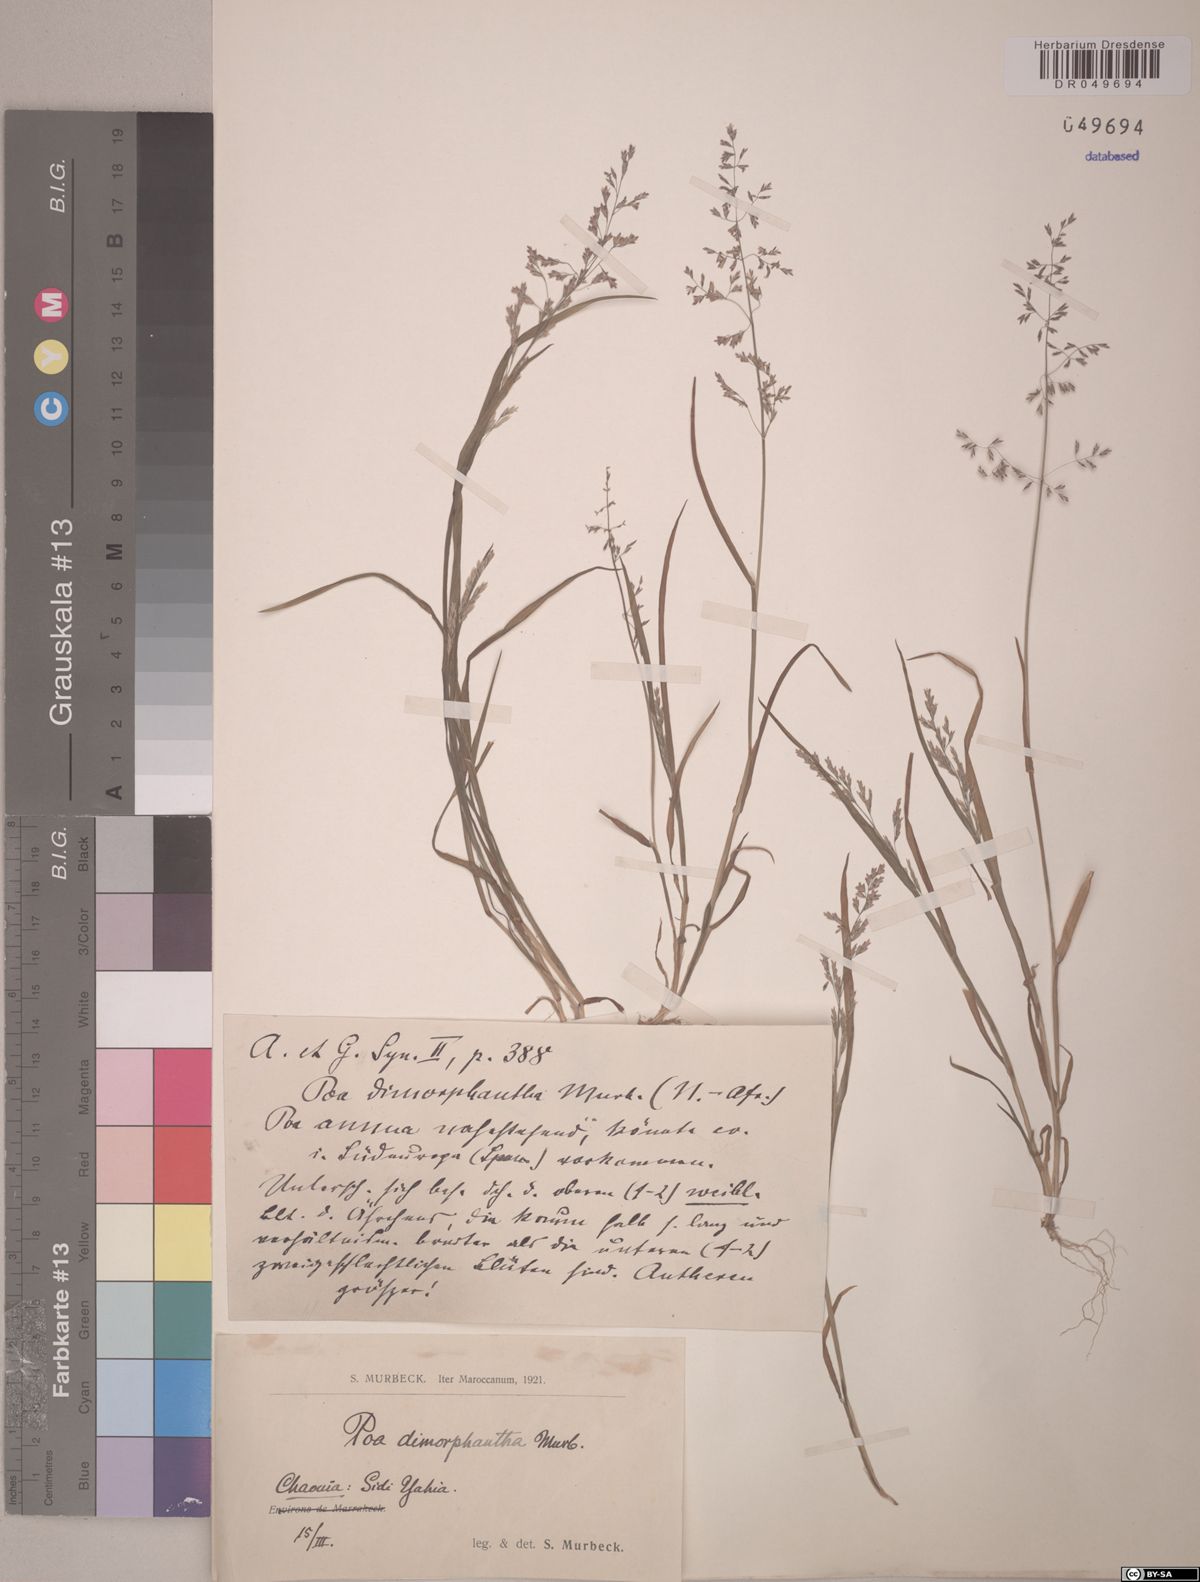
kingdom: Plantae
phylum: Tracheophyta
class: Liliopsida
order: Poales
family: Poaceae
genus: Poa
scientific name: Poa dimorphantha
